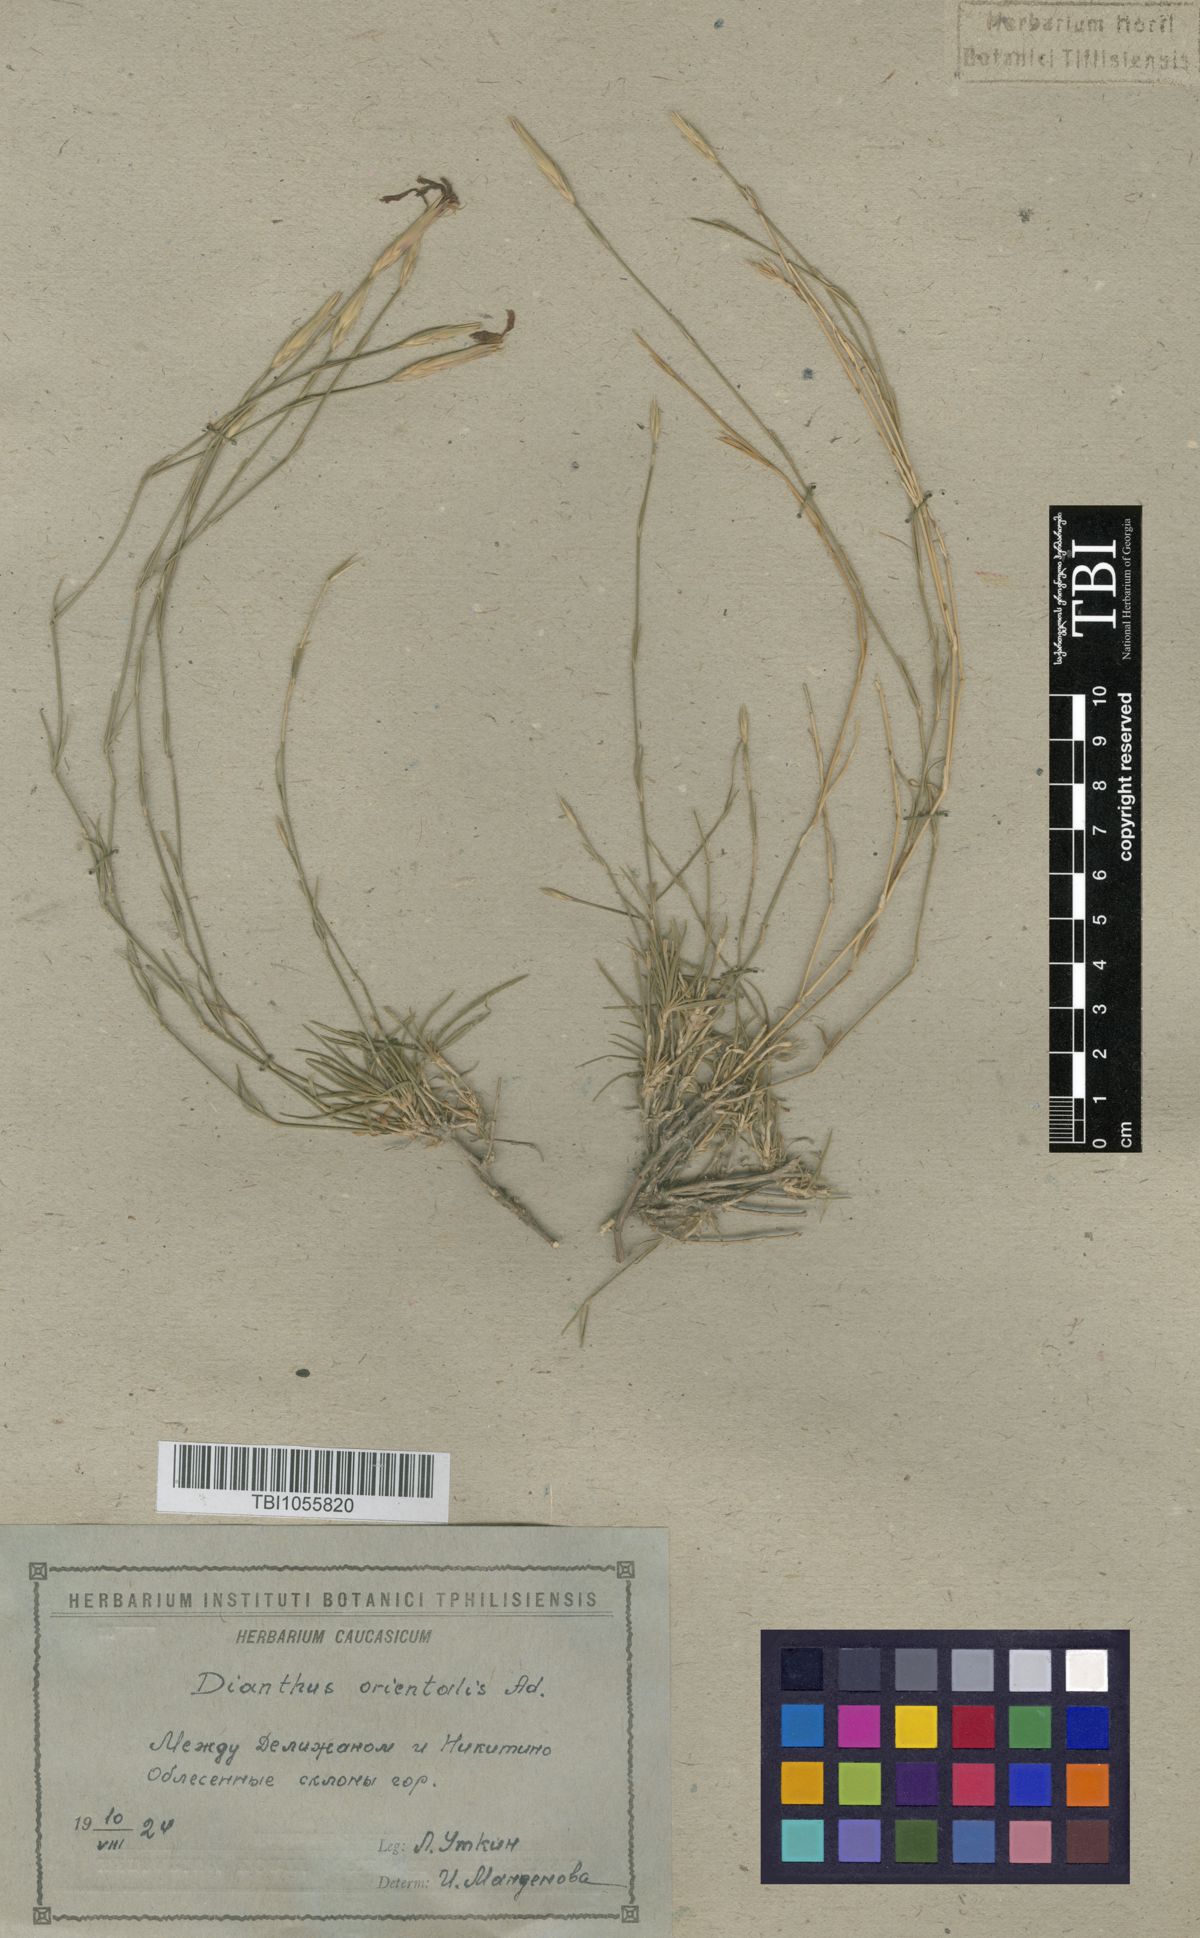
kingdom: Plantae
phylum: Tracheophyta
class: Magnoliopsida
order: Caryophyllales
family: Caryophyllaceae
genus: Dianthus
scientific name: Dianthus orientalis
